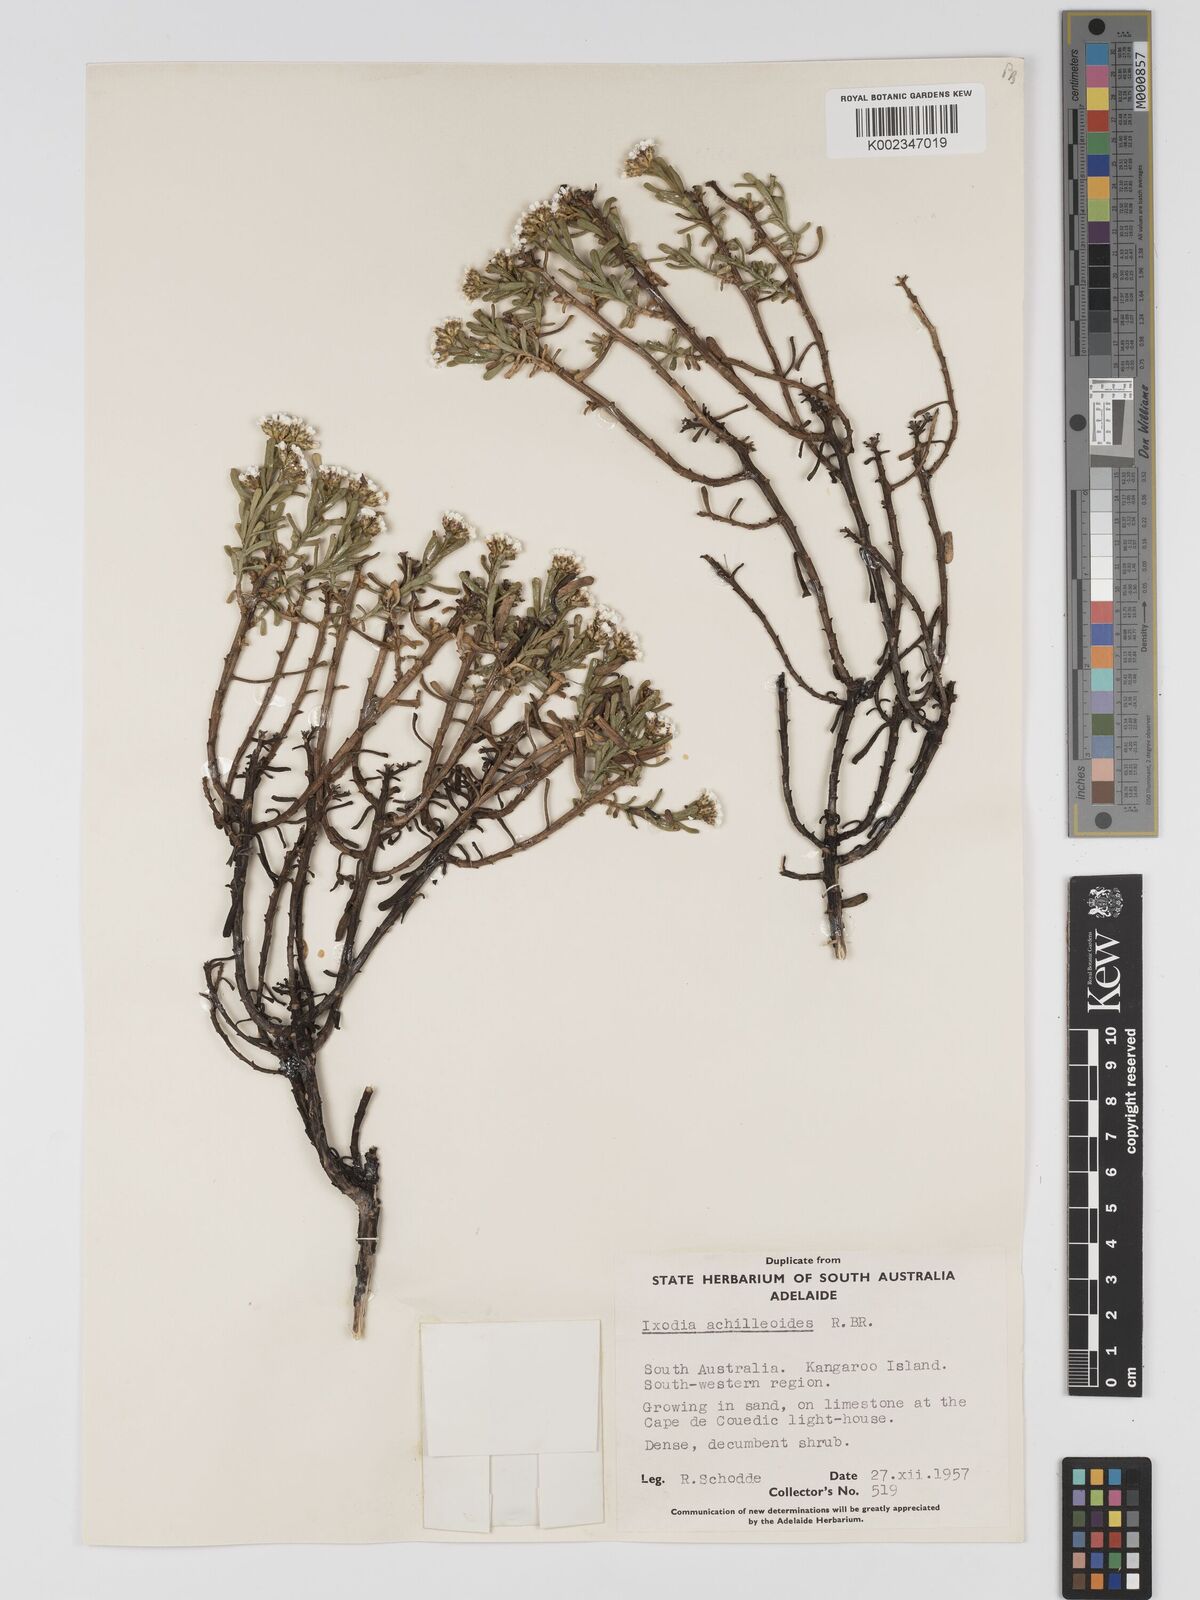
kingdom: Plantae
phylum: Tracheophyta
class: Magnoliopsida
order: Asterales
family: Asteraceae
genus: Ixodia
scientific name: Ixodia achilleoides
